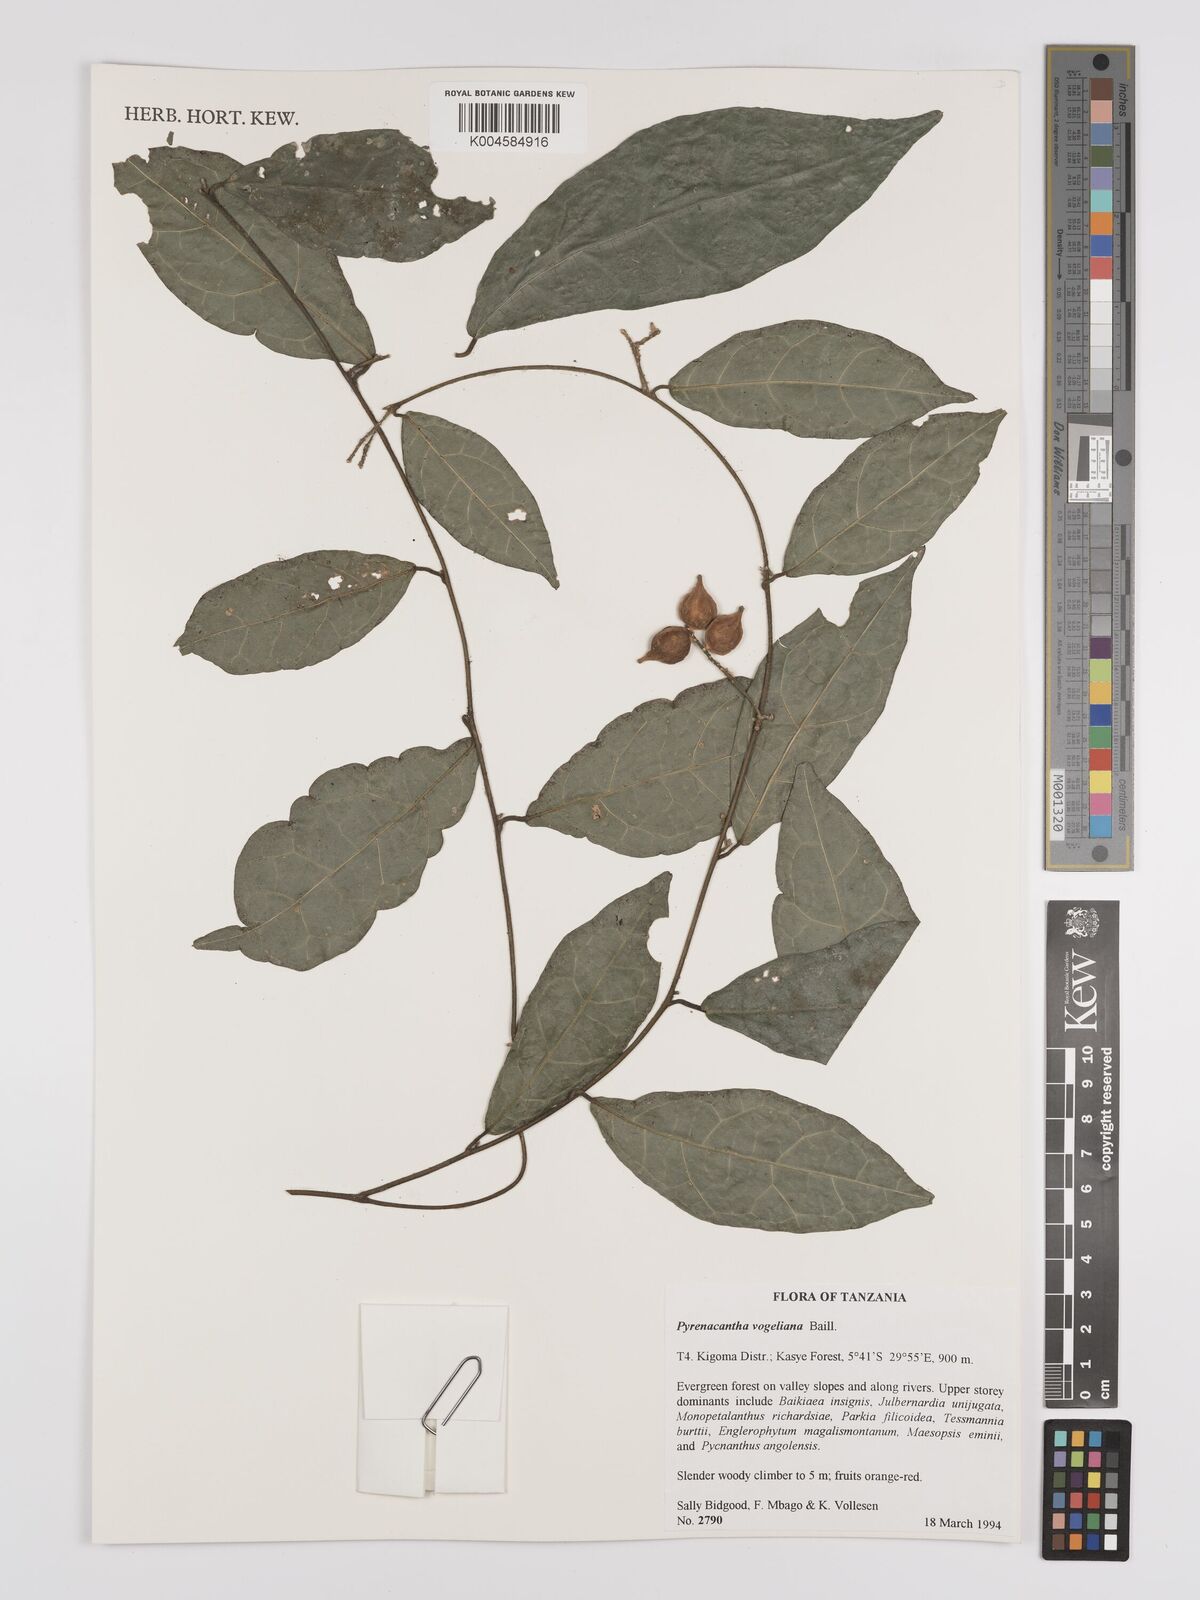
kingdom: Plantae
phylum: Tracheophyta
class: Magnoliopsida
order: Icacinales
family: Icacinaceae
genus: Pyrenacantha
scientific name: Pyrenacantha vogeliana
